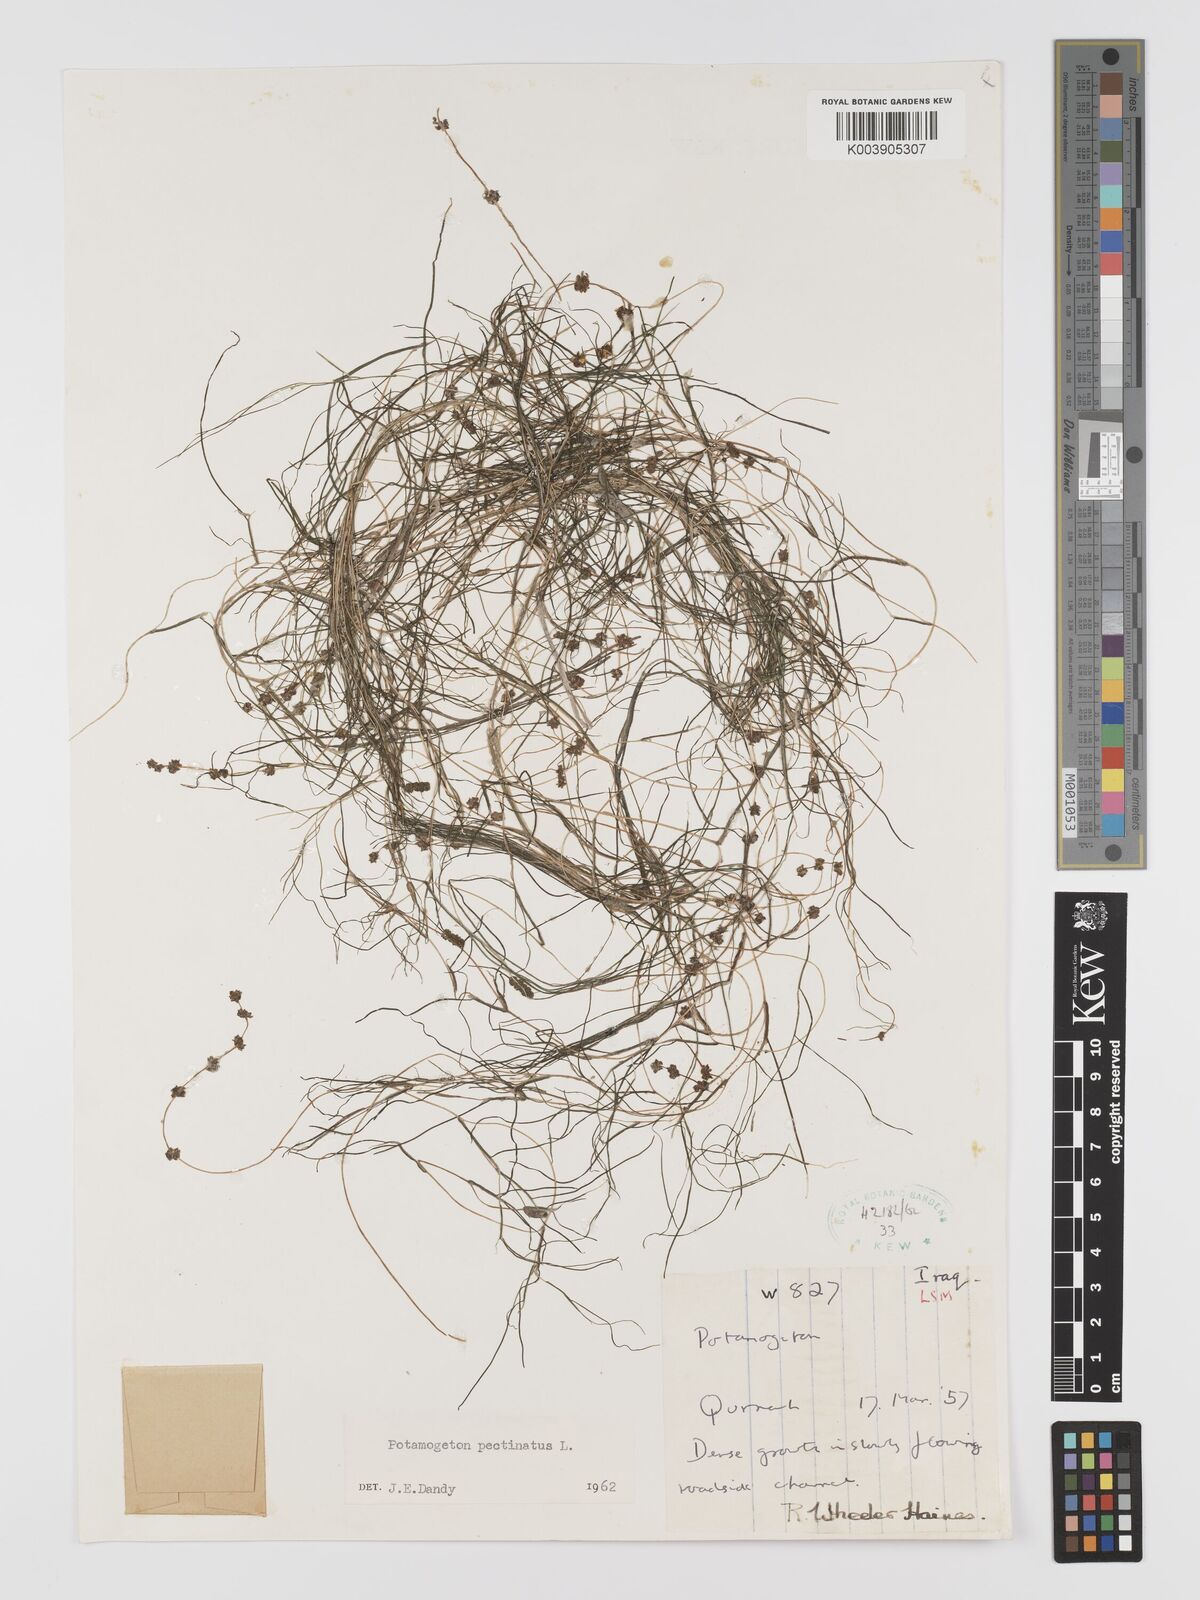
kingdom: Plantae
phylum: Tracheophyta
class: Liliopsida
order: Alismatales
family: Potamogetonaceae
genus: Stuckenia
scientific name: Stuckenia pectinata
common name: Sago pondweed
